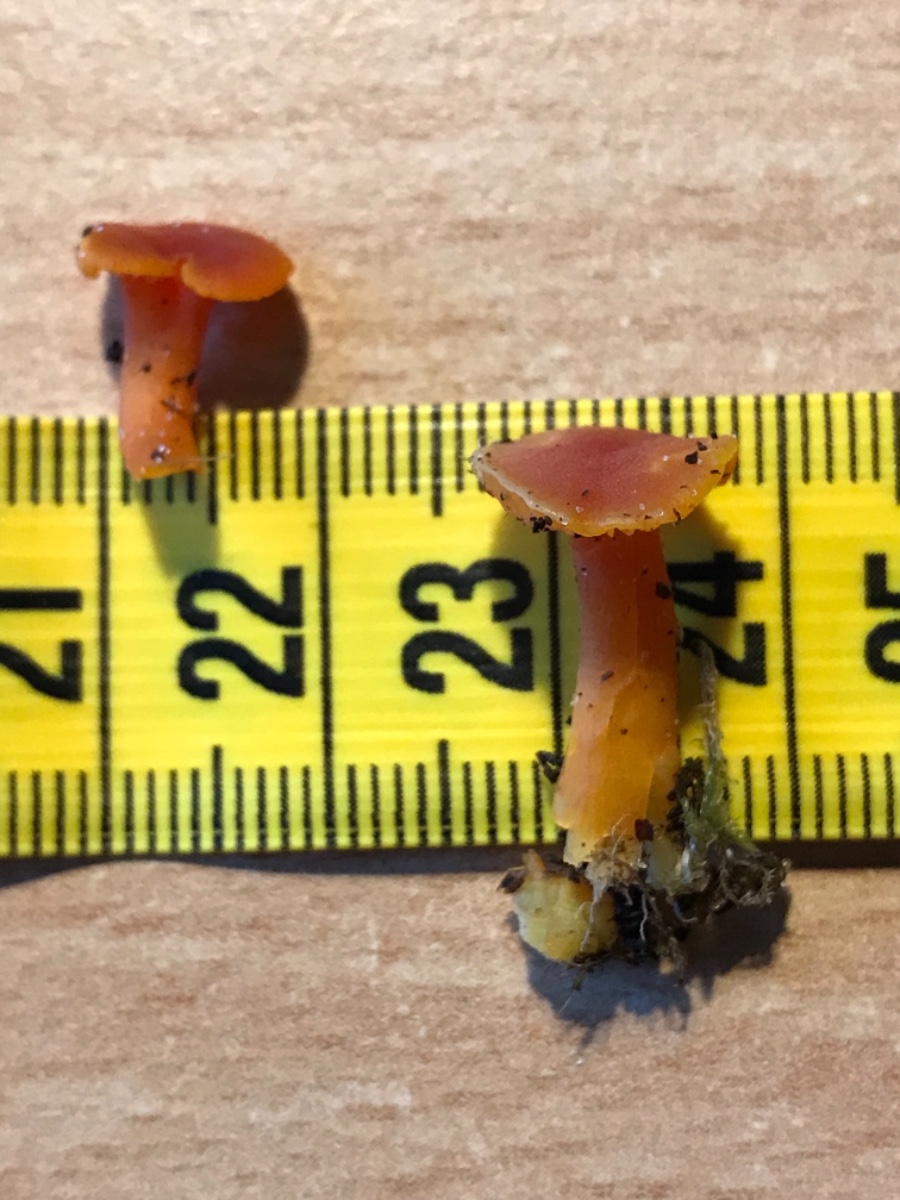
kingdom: Fungi
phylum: Basidiomycota
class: Agaricomycetes
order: Agaricales
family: Hygrophoraceae
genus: Hygrocybe
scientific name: Hygrocybe miniata
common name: mønje-vokshat
